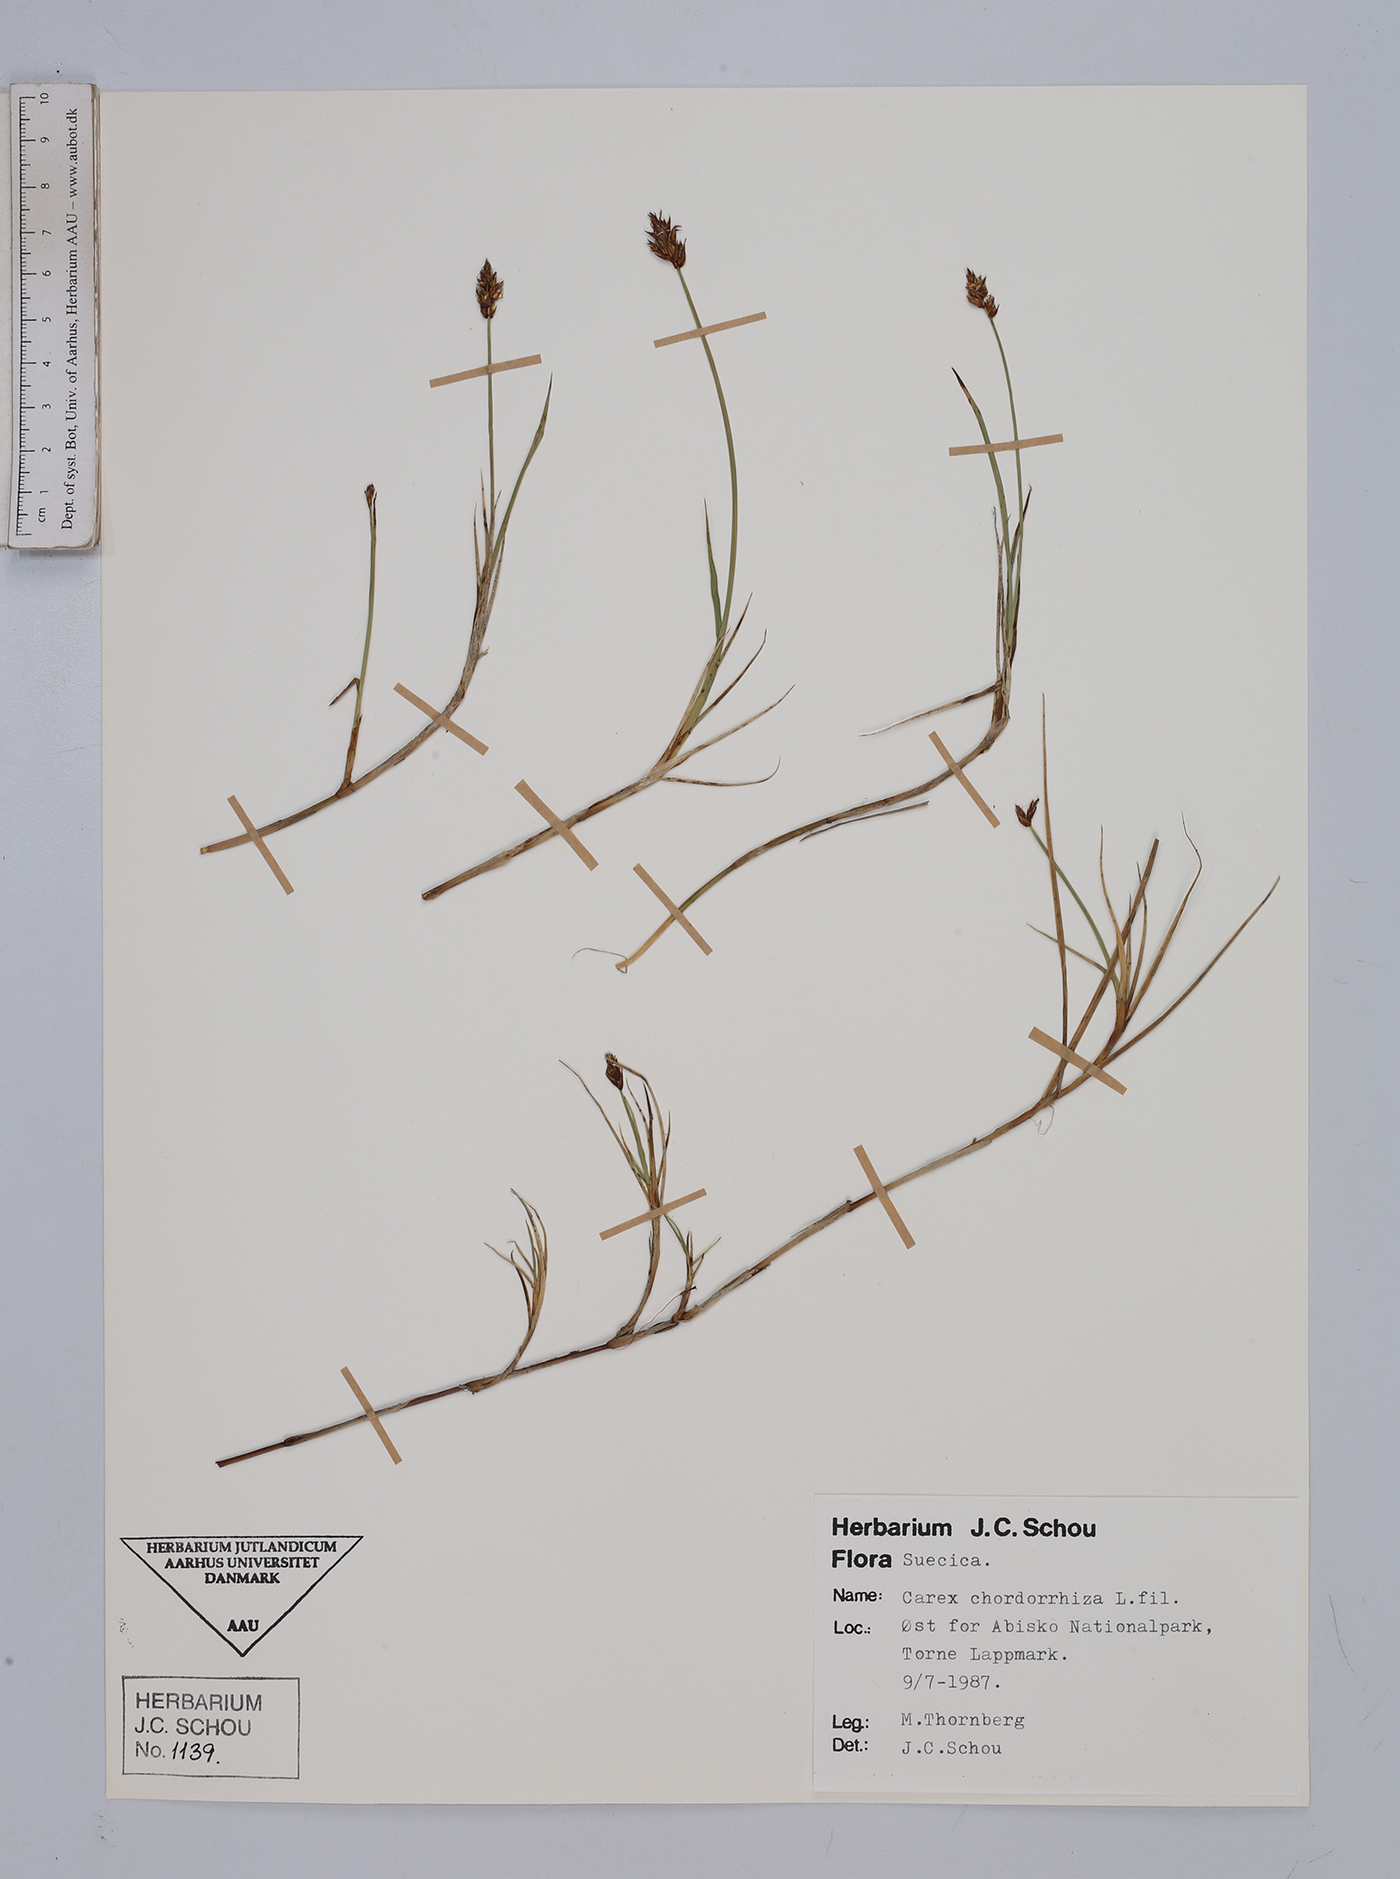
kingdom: Plantae
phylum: Tracheophyta
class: Liliopsida
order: Poales
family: Cyperaceae
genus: Carex
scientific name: Carex chordorrhiza
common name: String sedge
